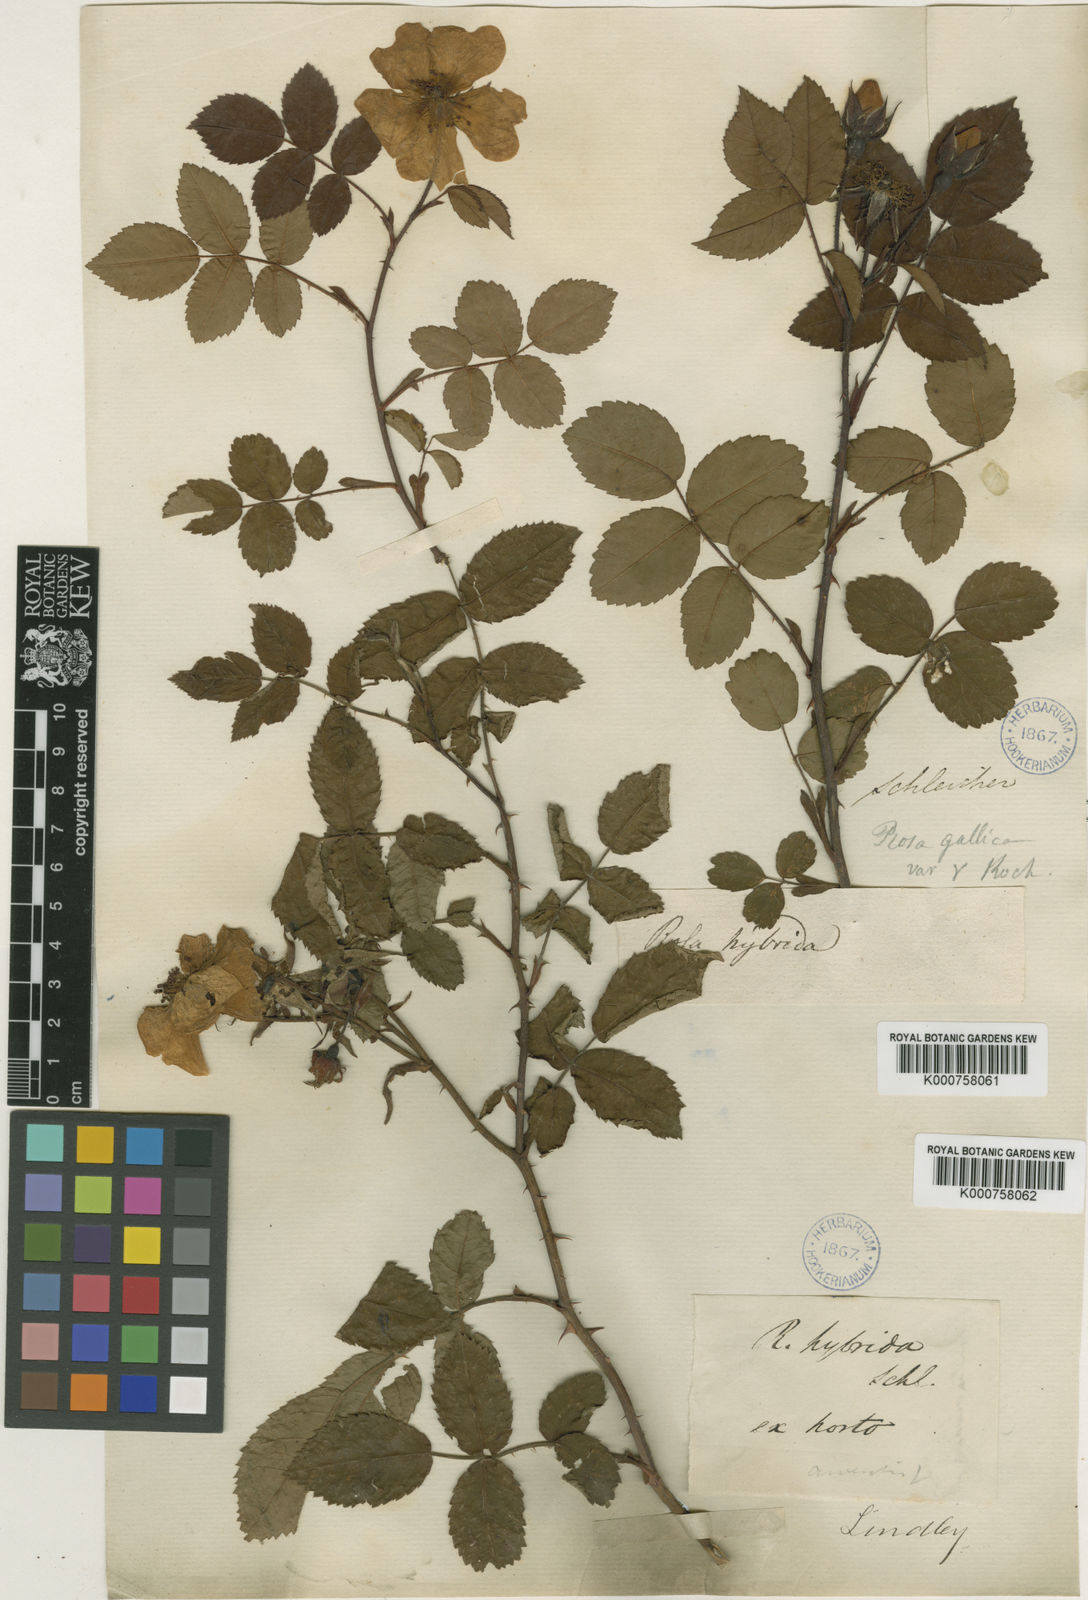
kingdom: Plantae
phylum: Tracheophyta
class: Magnoliopsida
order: Rosales
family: Rosaceae
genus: Rosa
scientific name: Rosa pendulina
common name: Alpine rose
